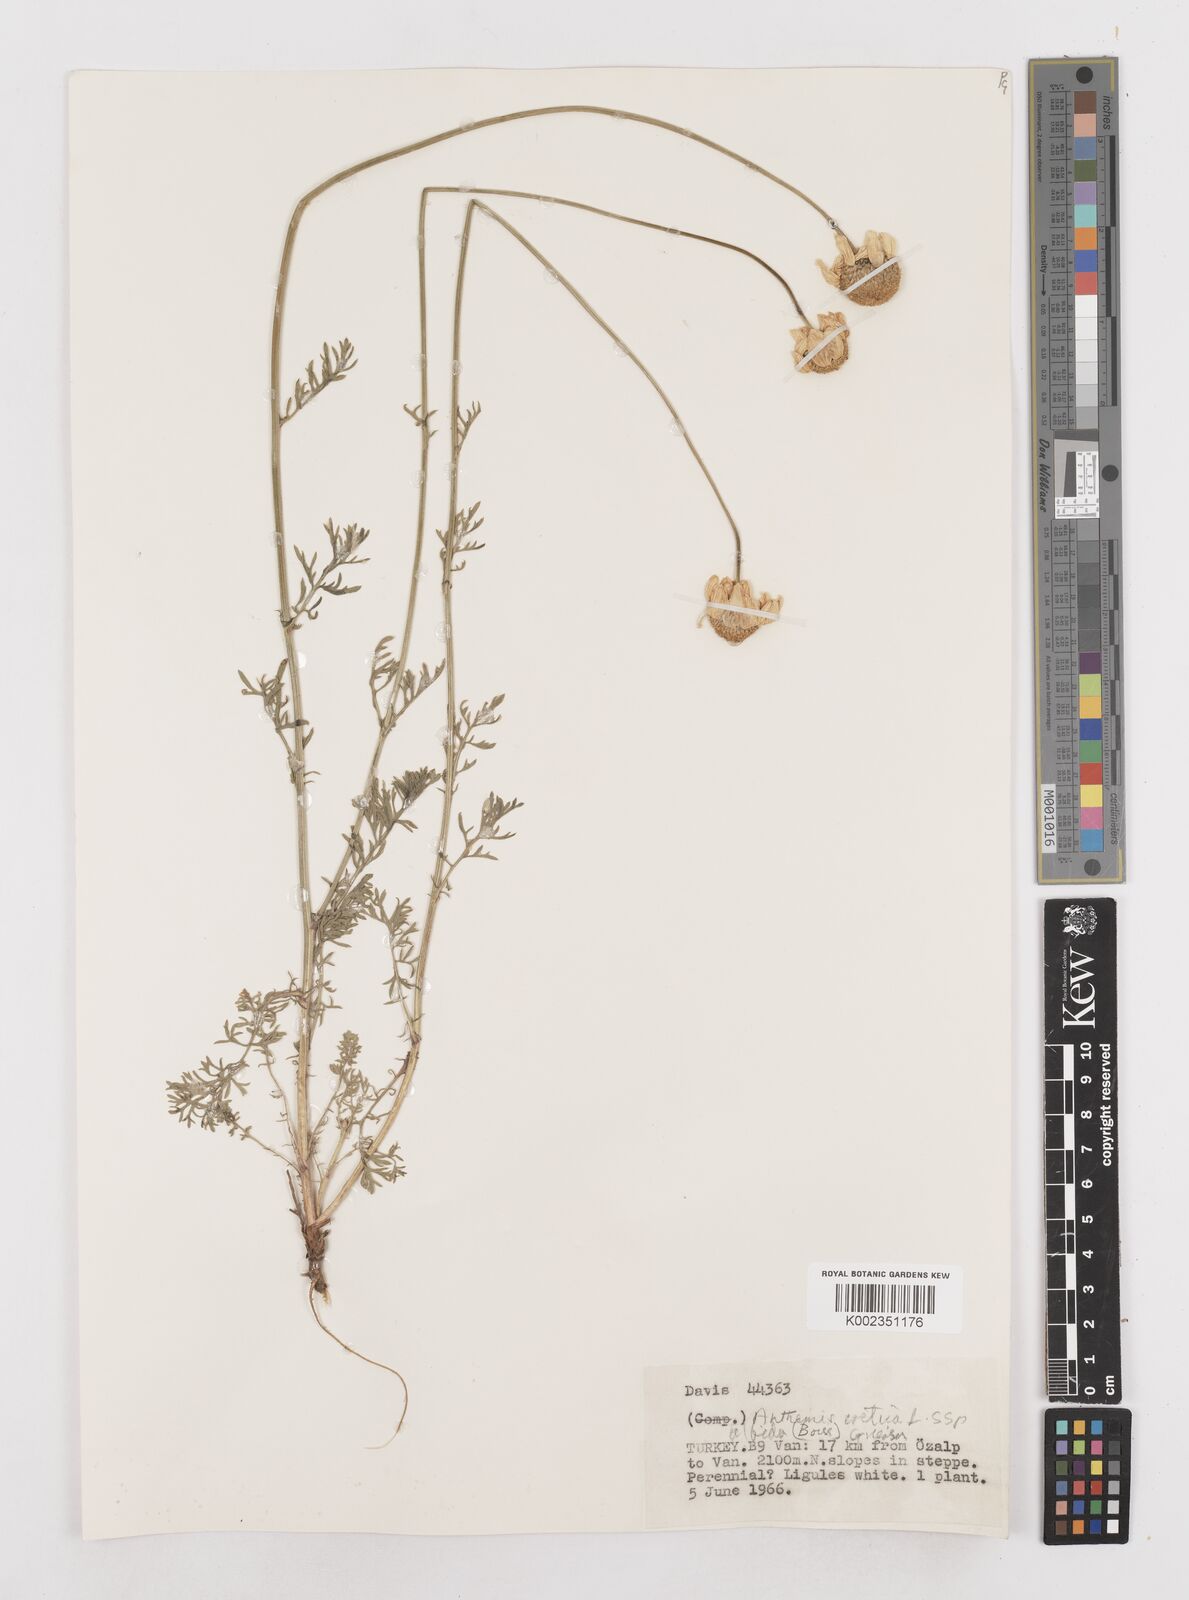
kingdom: Plantae
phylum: Tracheophyta
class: Magnoliopsida
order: Asterales
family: Asteraceae
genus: Anthemis
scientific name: Anthemis cretica
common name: Mountain dog-daisy
